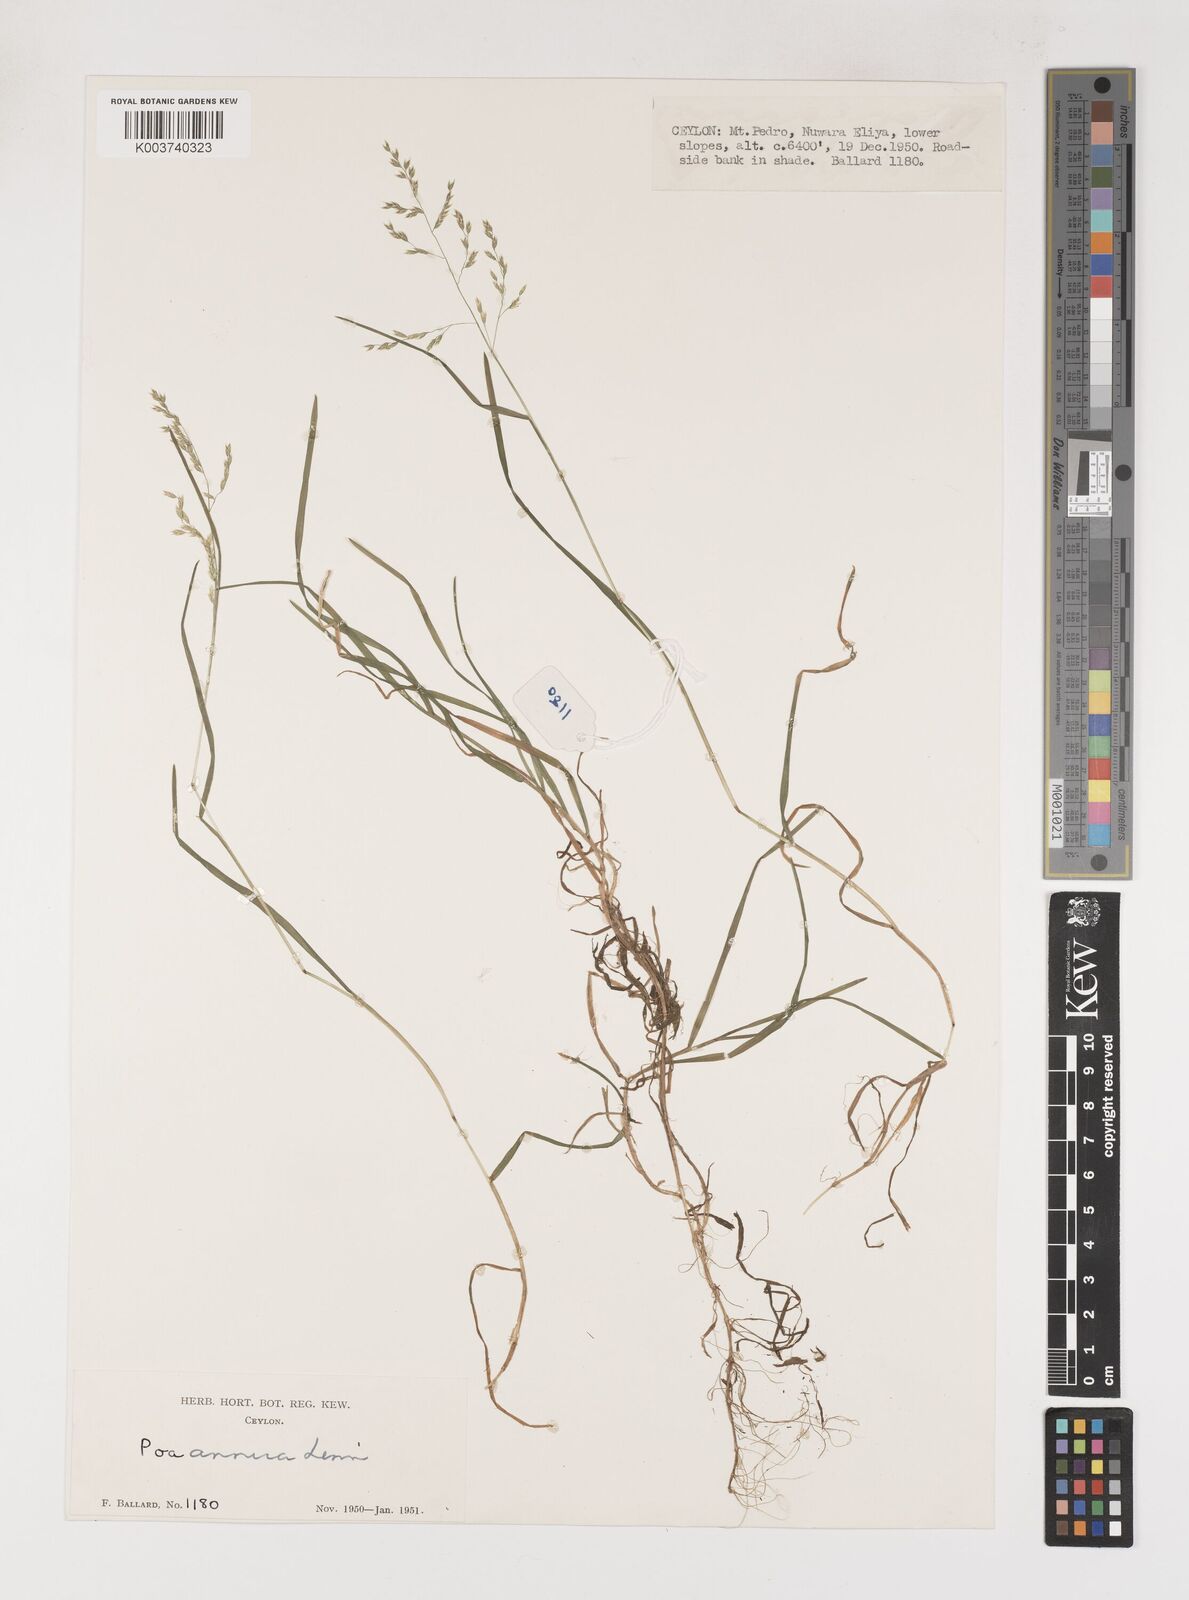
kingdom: Plantae
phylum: Tracheophyta
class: Liliopsida
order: Poales
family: Poaceae
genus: Poa
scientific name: Poa annua
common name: Annual bluegrass
